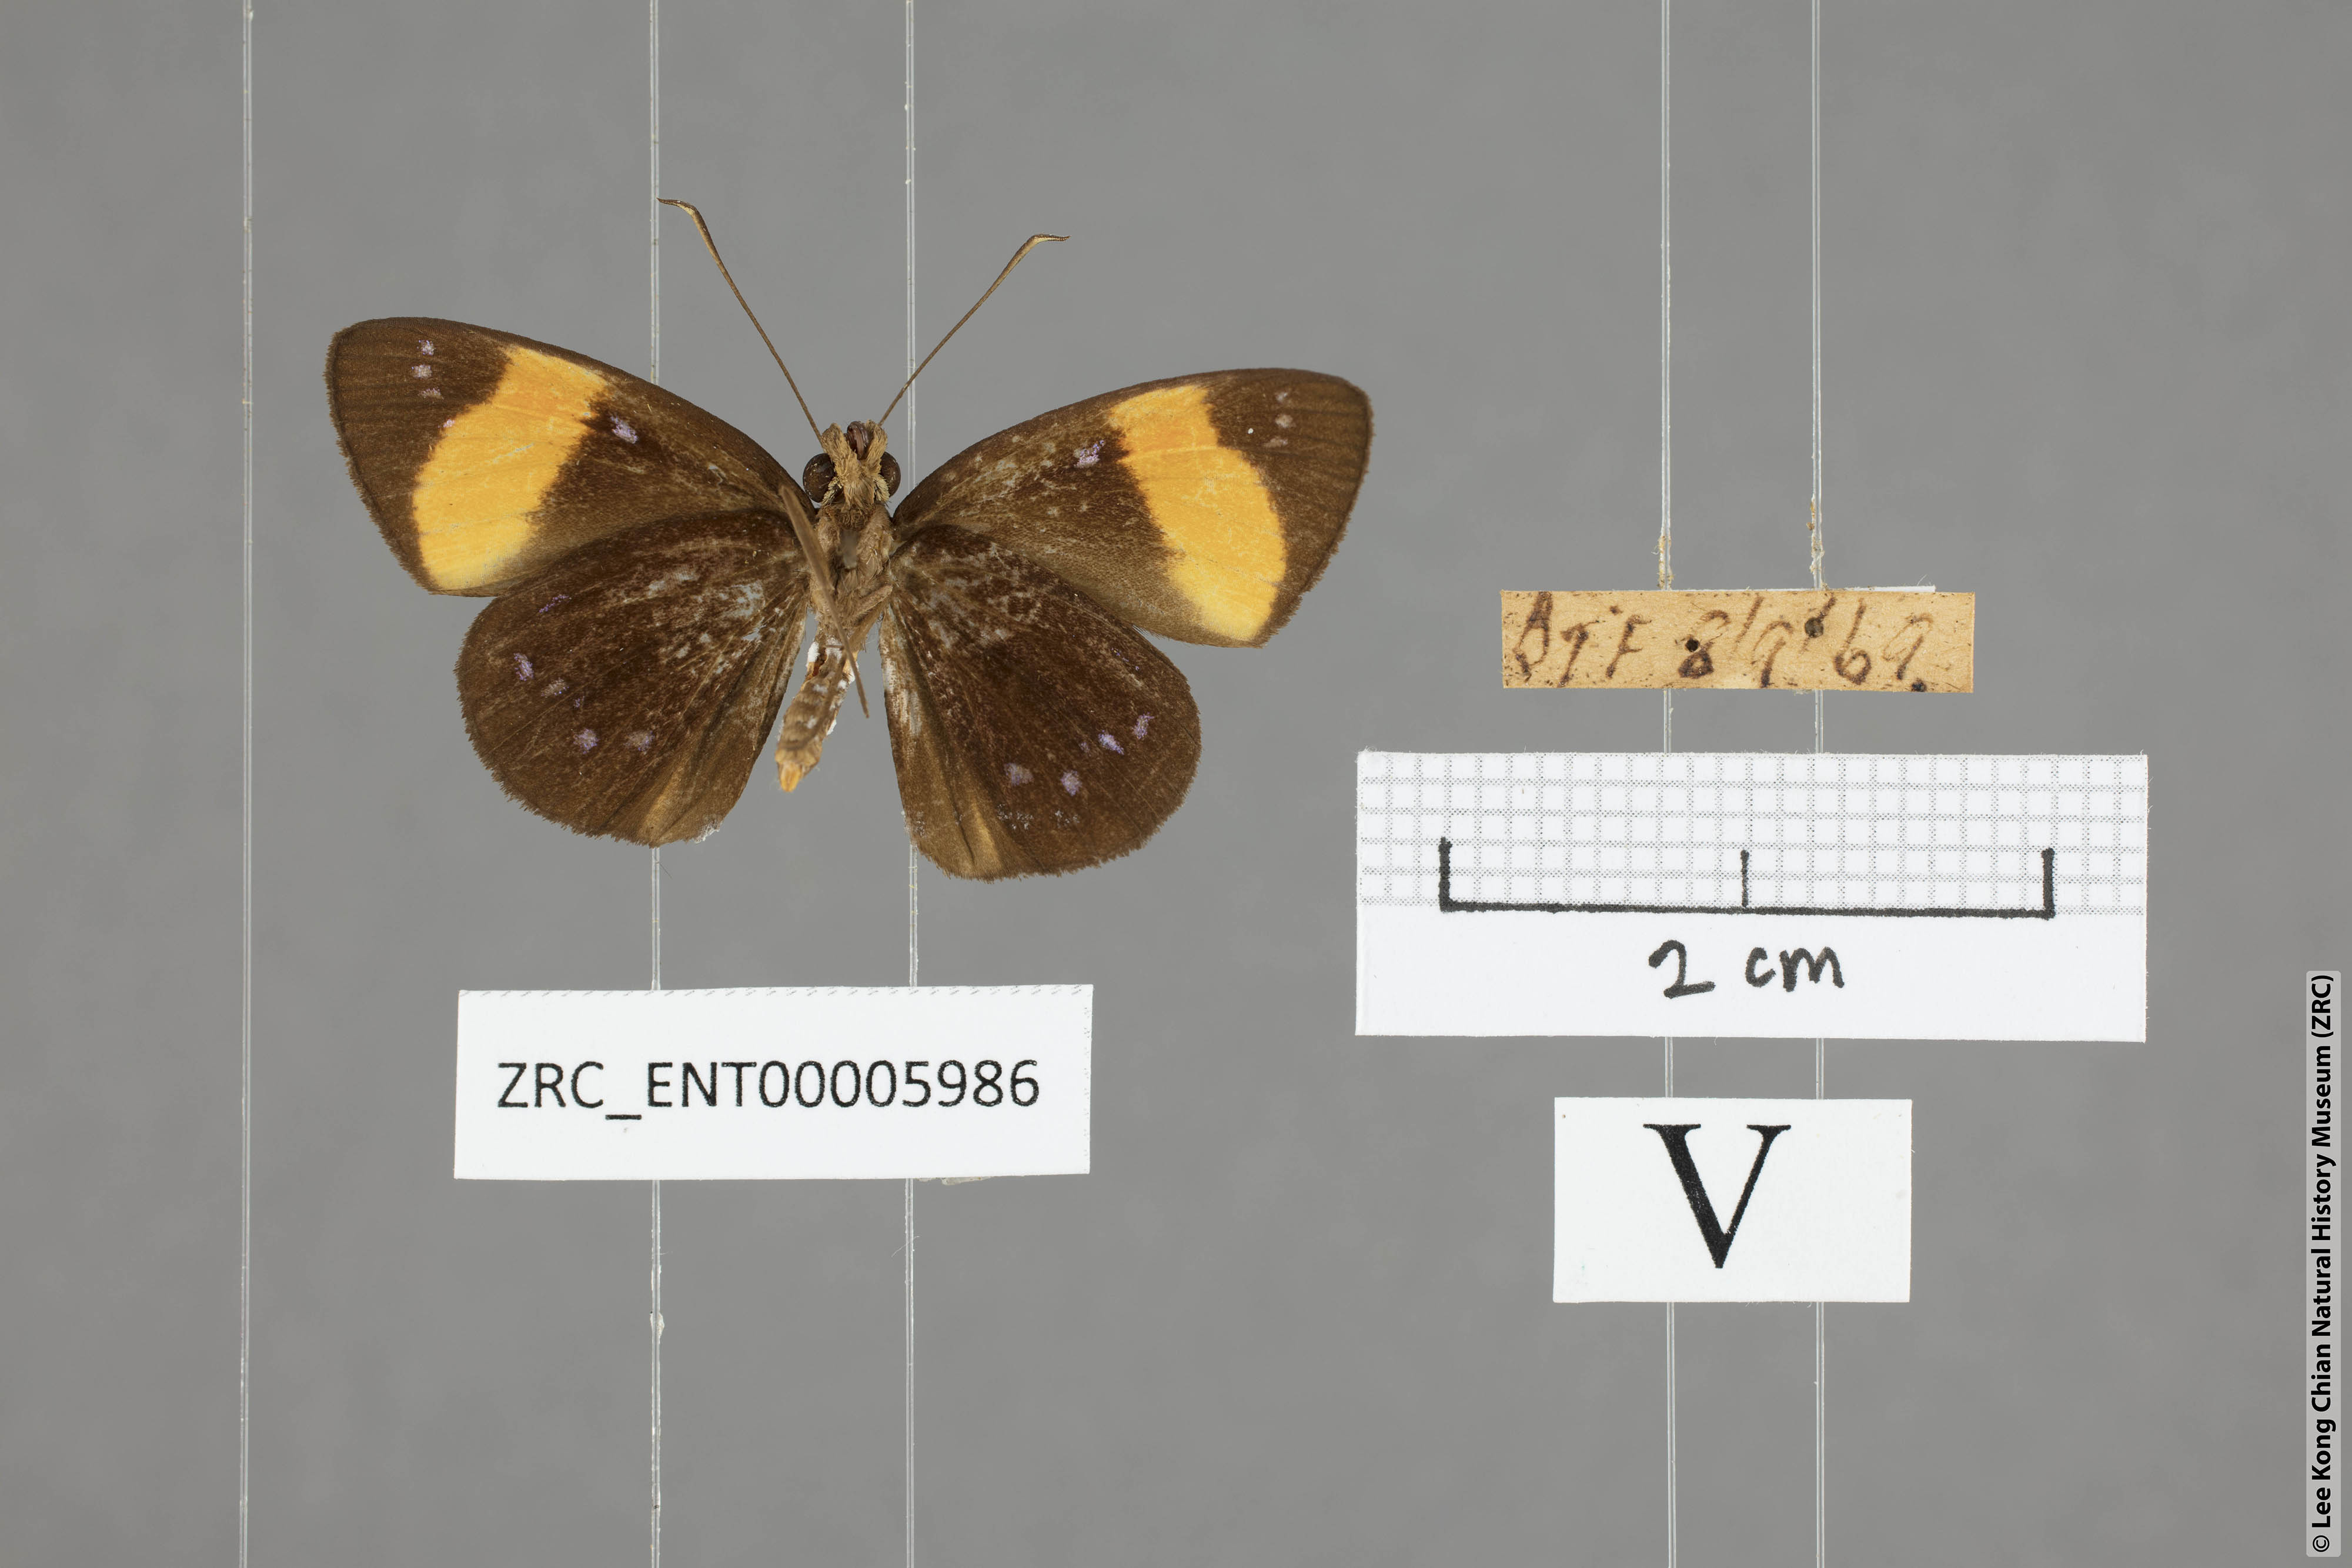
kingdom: Animalia
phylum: Arthropoda
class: Insecta
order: Lepidoptera
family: Hesperiidae
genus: Ancistroides
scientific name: Ancistroides gemmifer
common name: Gem demon
